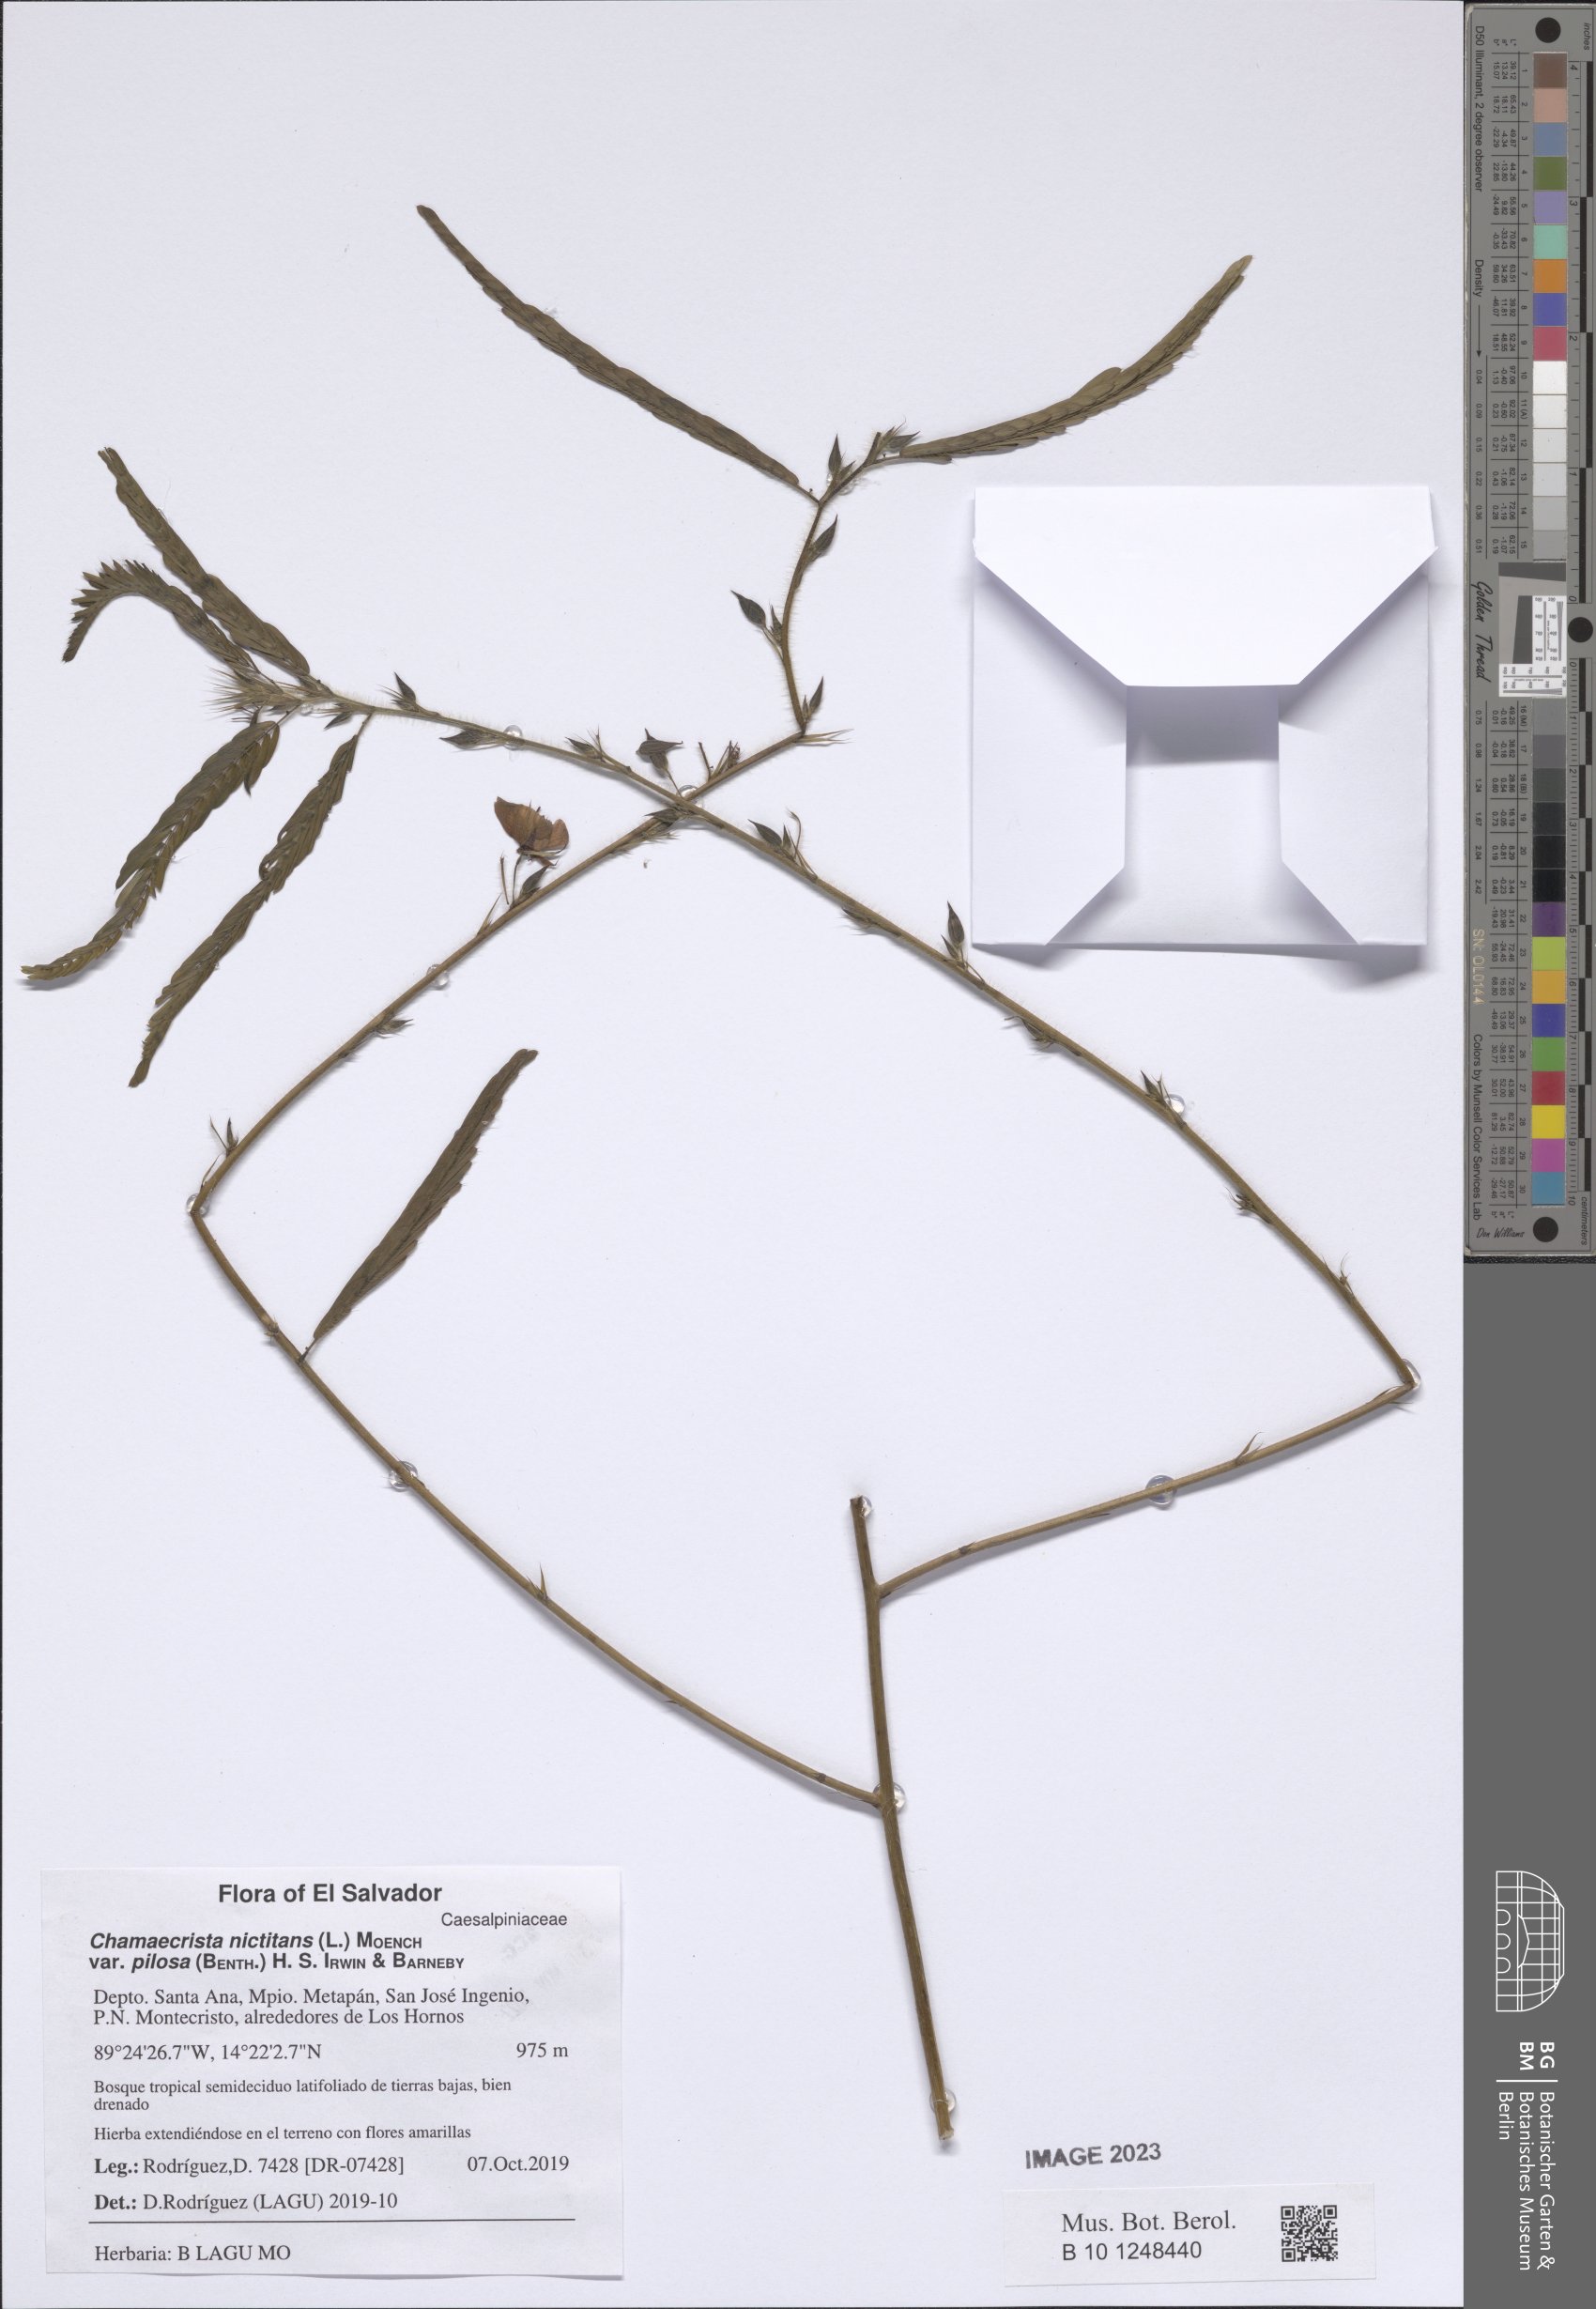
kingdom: Plantae
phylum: Tracheophyta
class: Magnoliopsida
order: Fabales
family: Fabaceae
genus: Chamaecrista
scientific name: Chamaecrista nictitans
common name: Sensitive cassia
